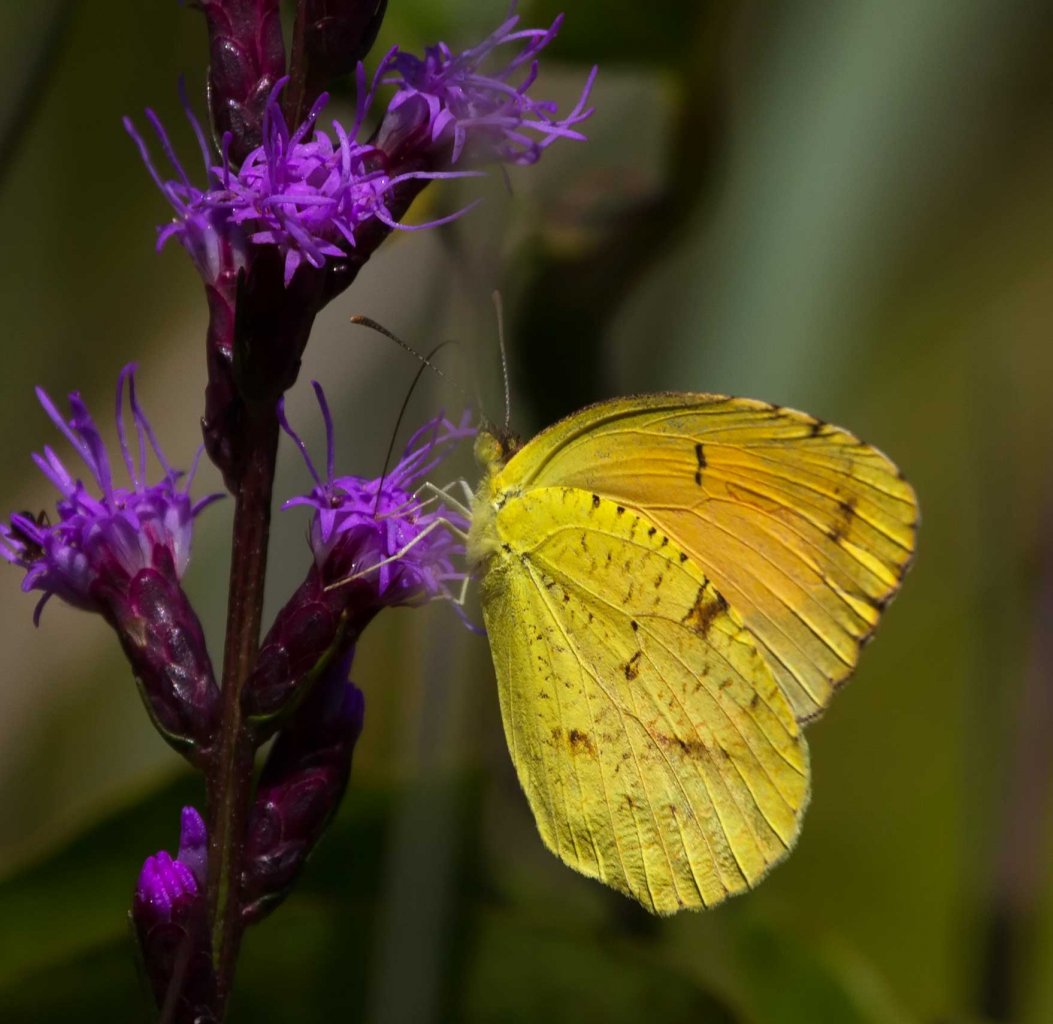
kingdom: Animalia
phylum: Arthropoda
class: Insecta
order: Lepidoptera
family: Pieridae
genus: Abaeis
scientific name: Abaeis nicippe
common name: Sleepy Orange
